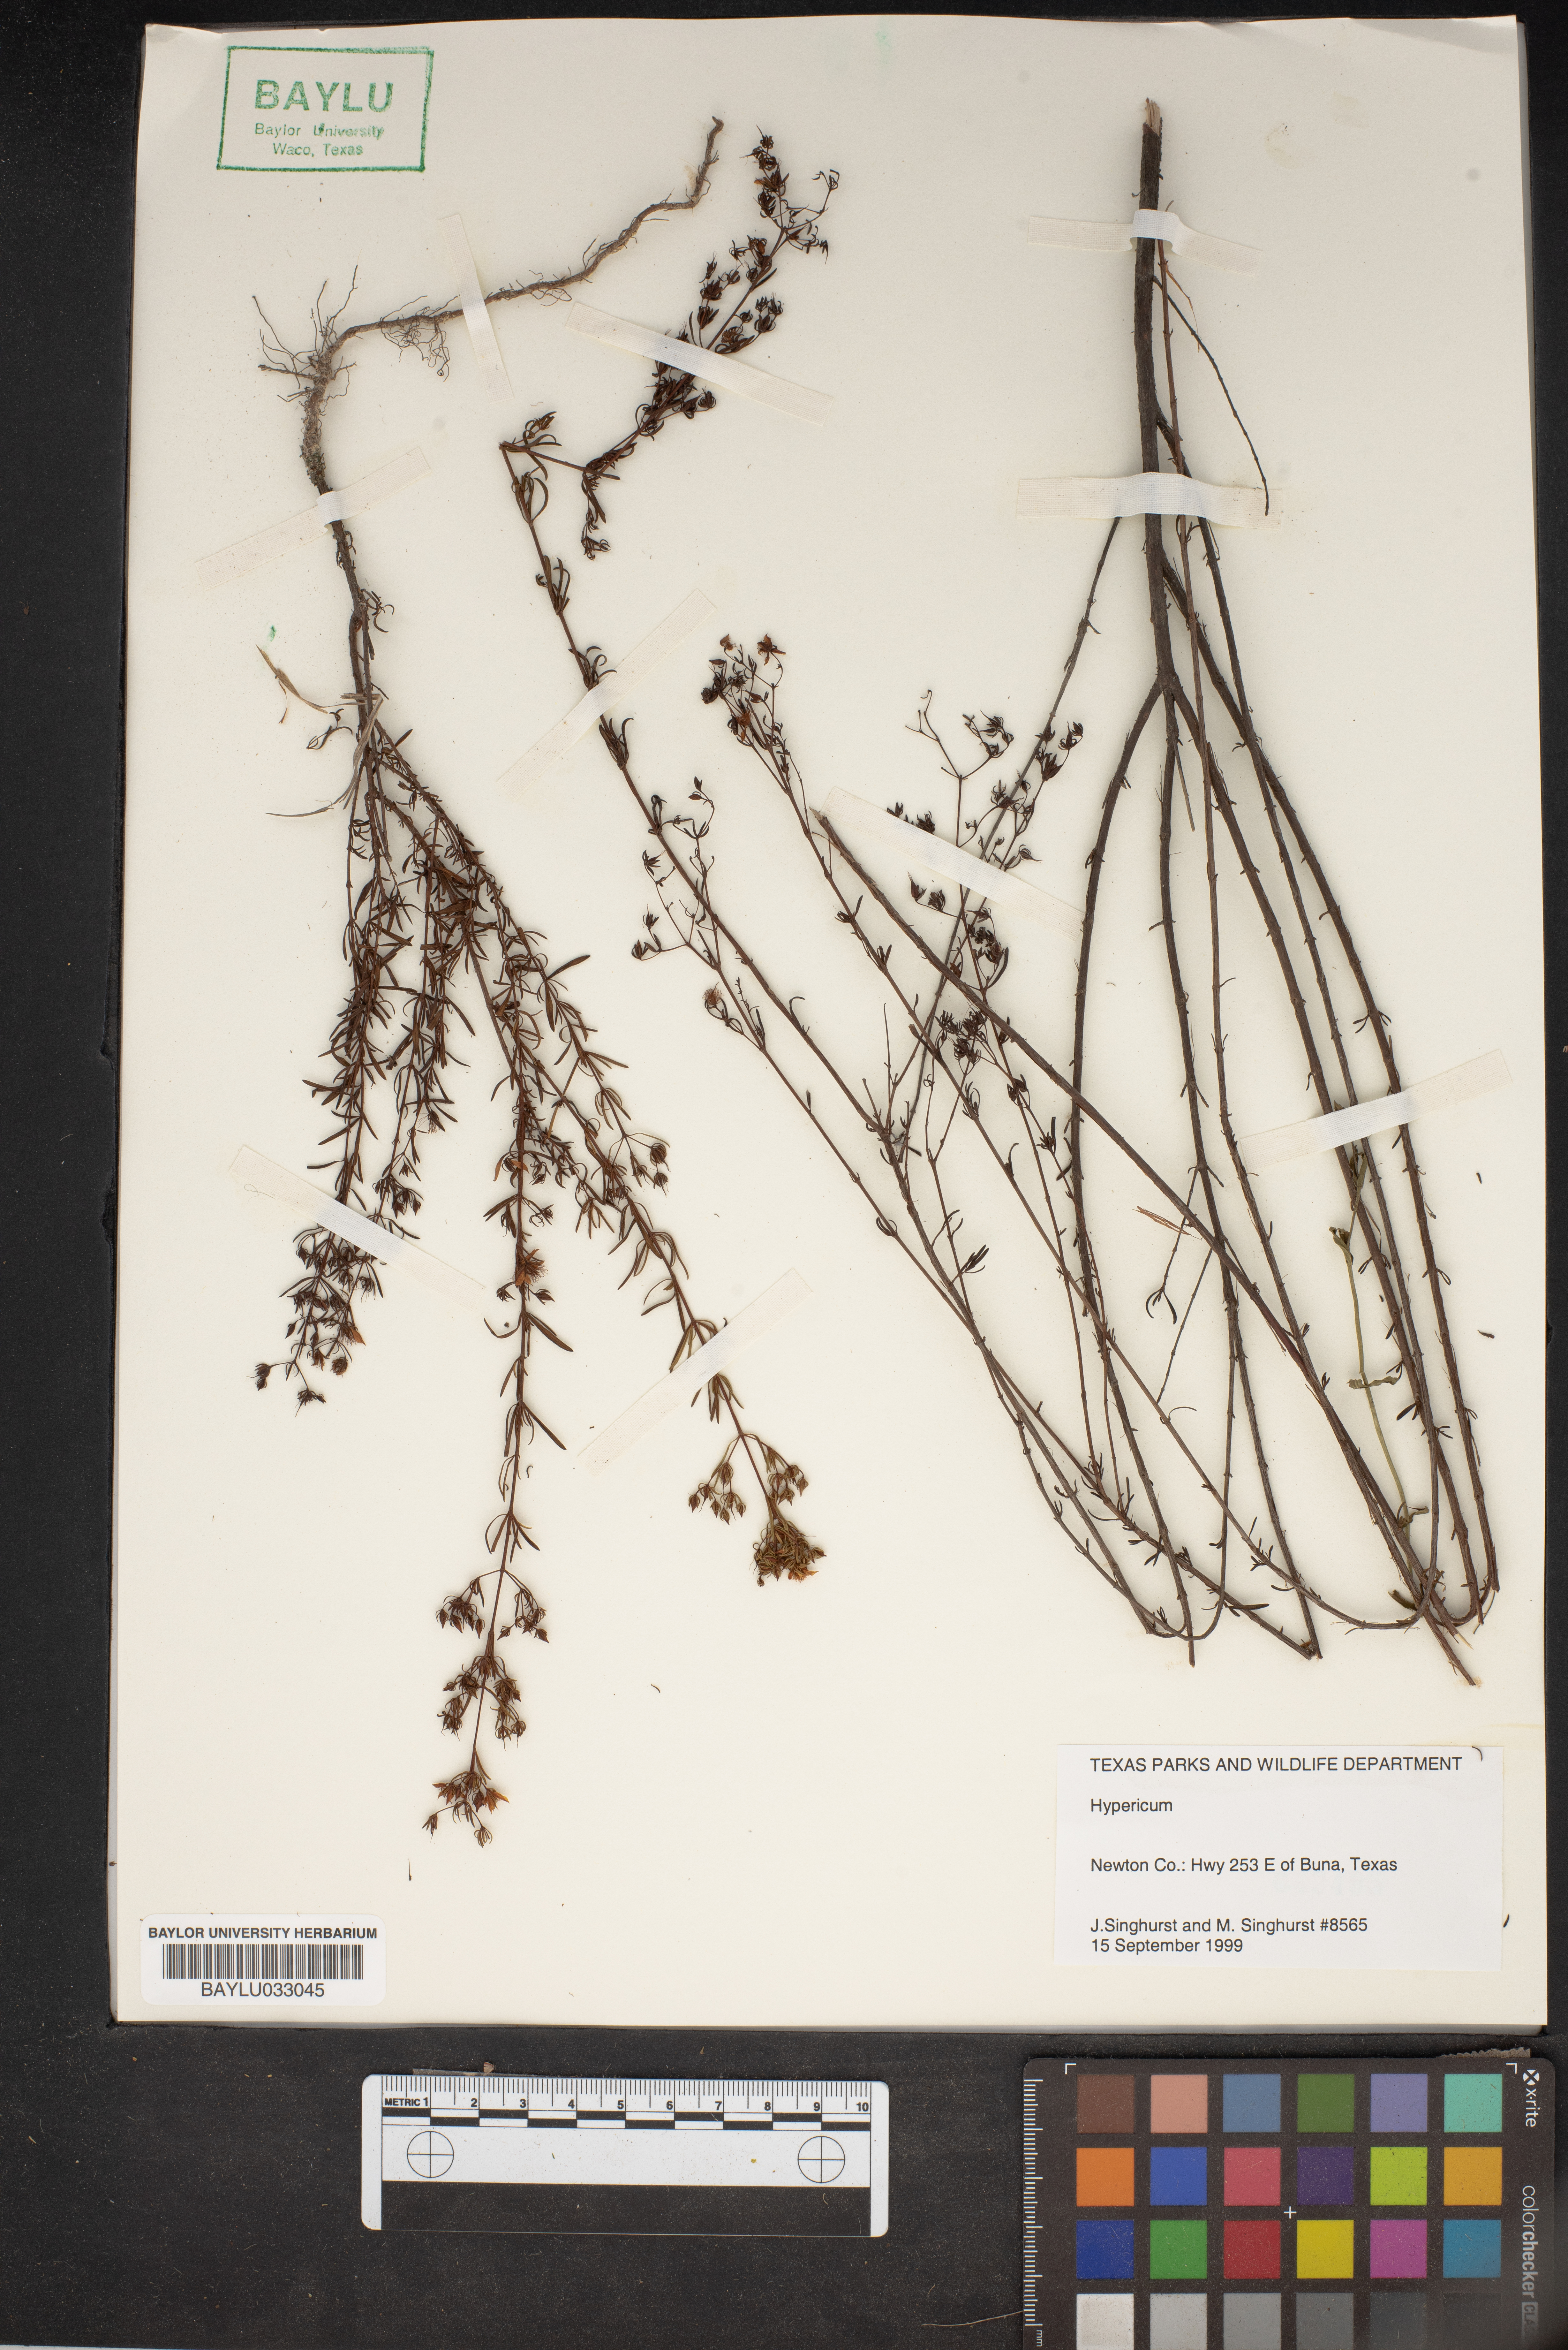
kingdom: Plantae
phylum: Tracheophyta
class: Magnoliopsida
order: Malpighiales
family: Hypericaceae
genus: Hypericum
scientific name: Hypericum
